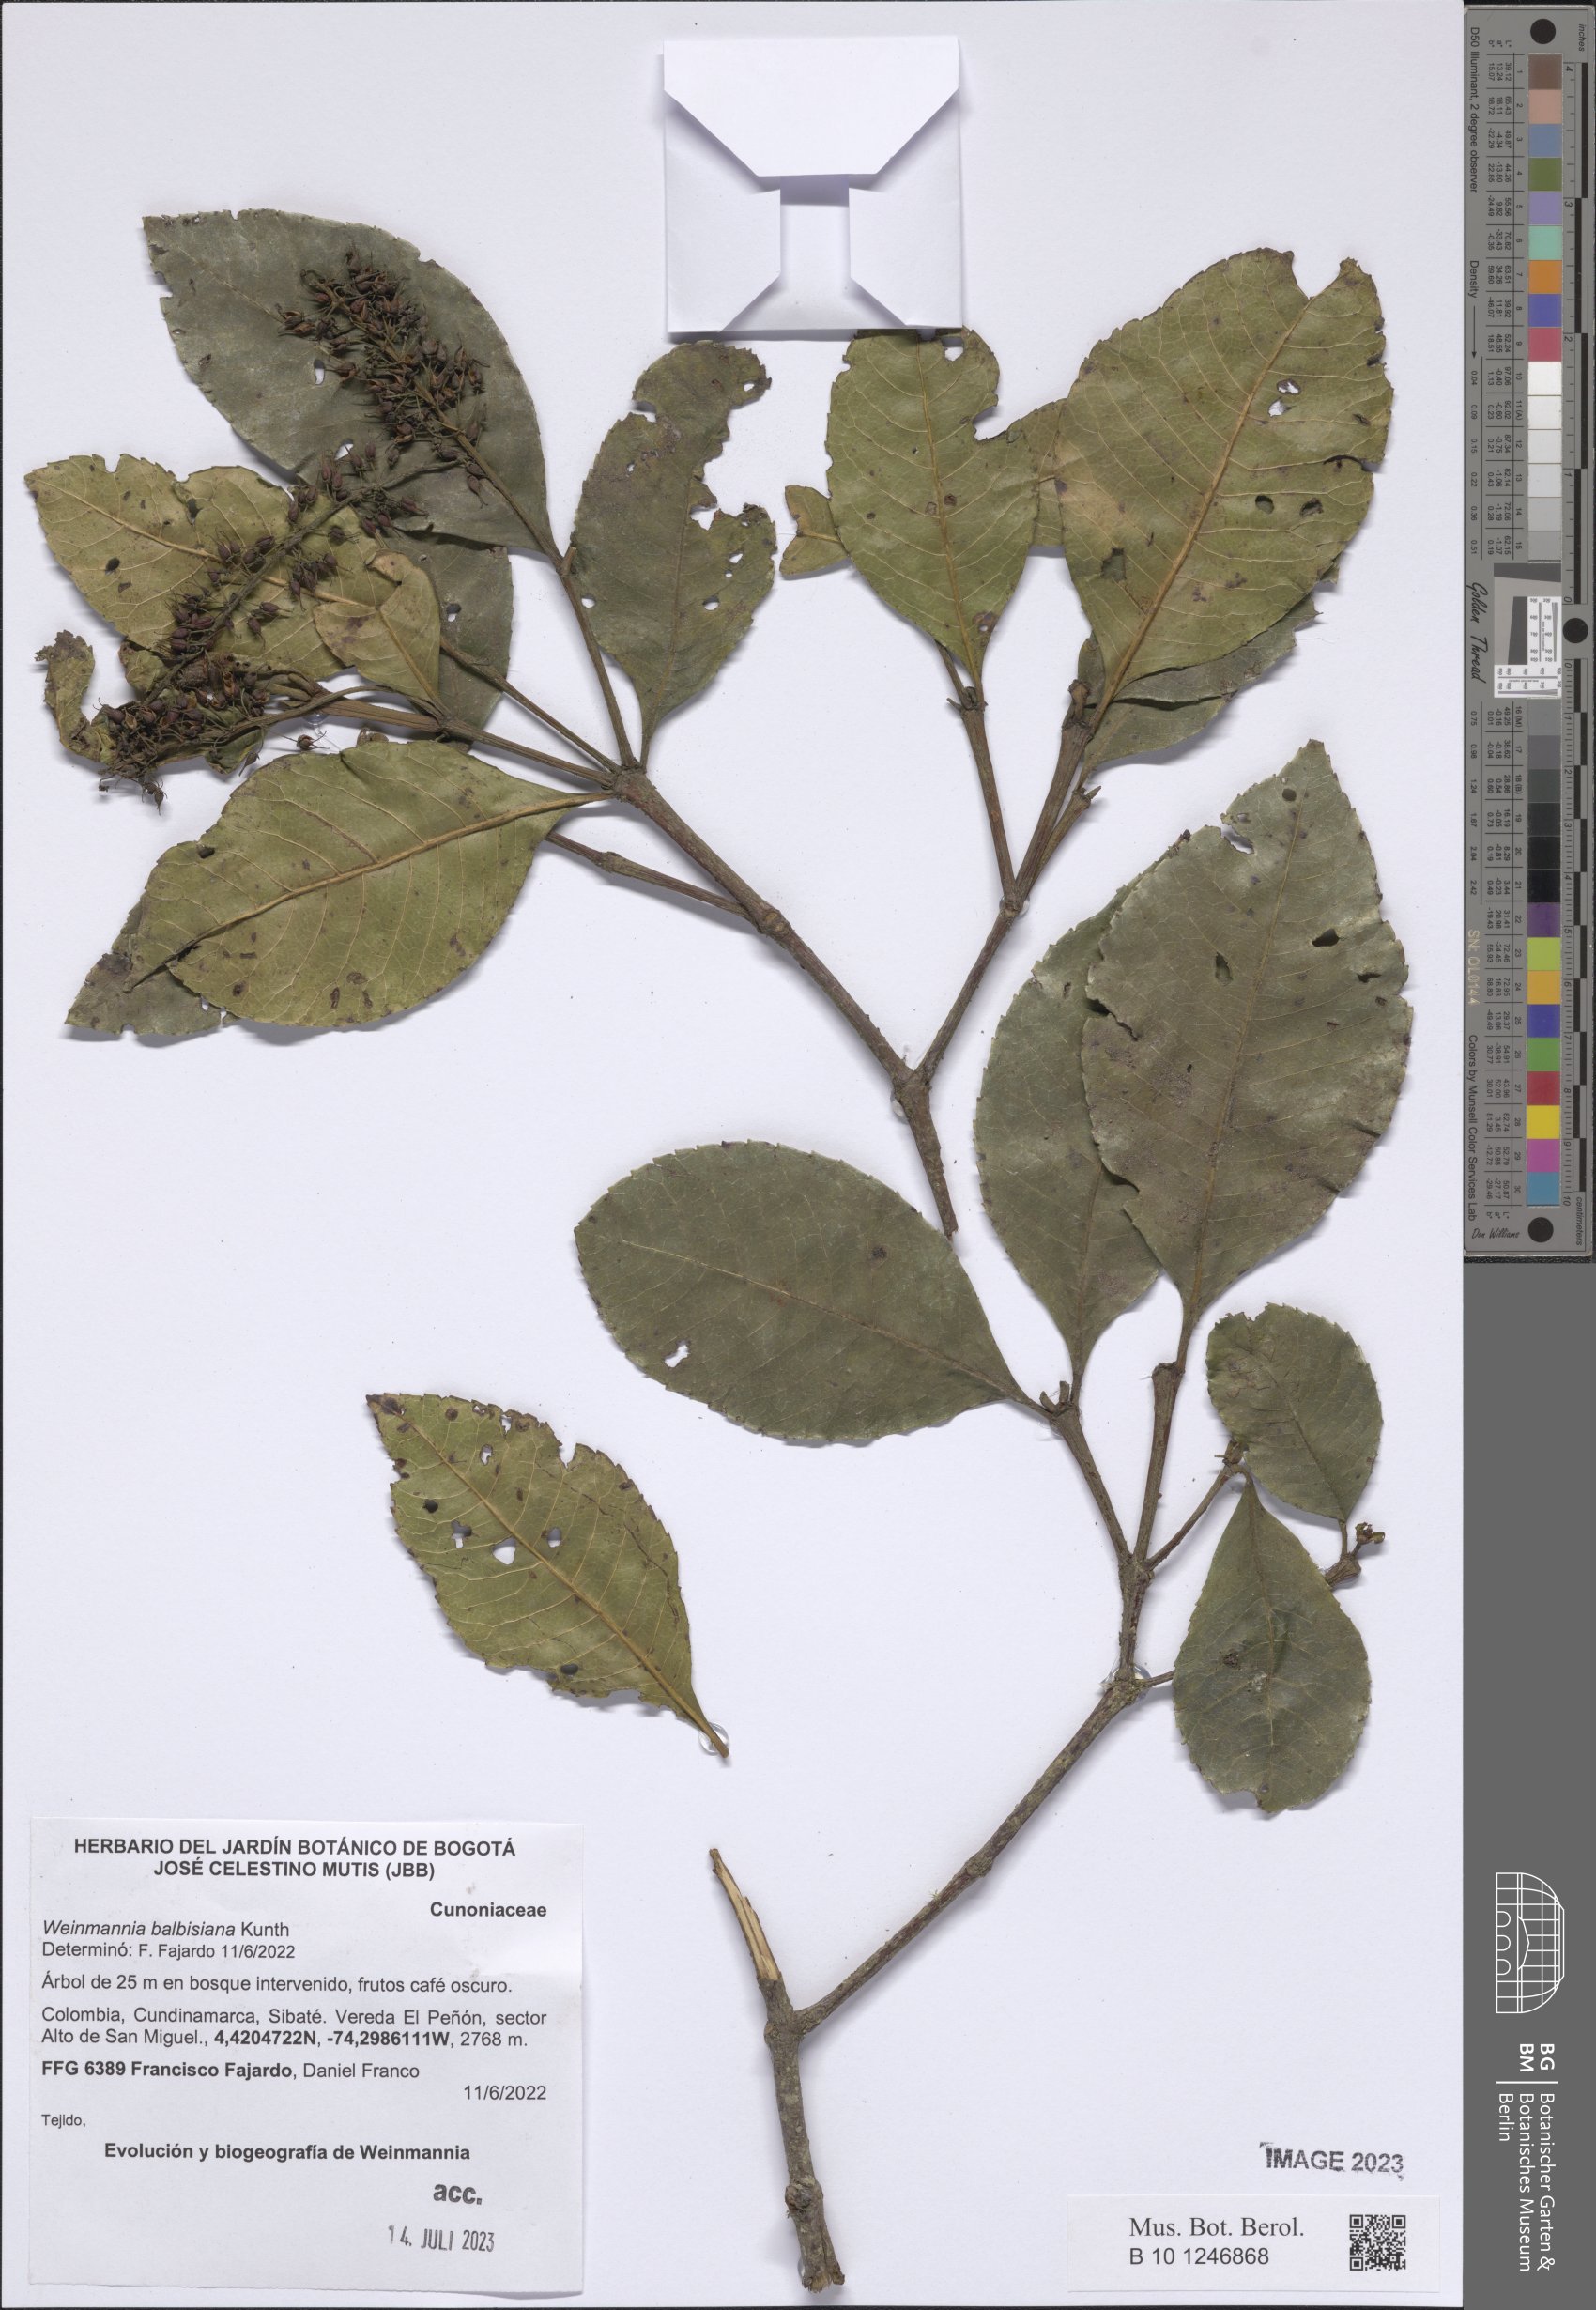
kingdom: Plantae
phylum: Tracheophyta
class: Magnoliopsida
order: Oxalidales
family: Cunoniaceae
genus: Weinmannia
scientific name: Weinmannia balbisana
